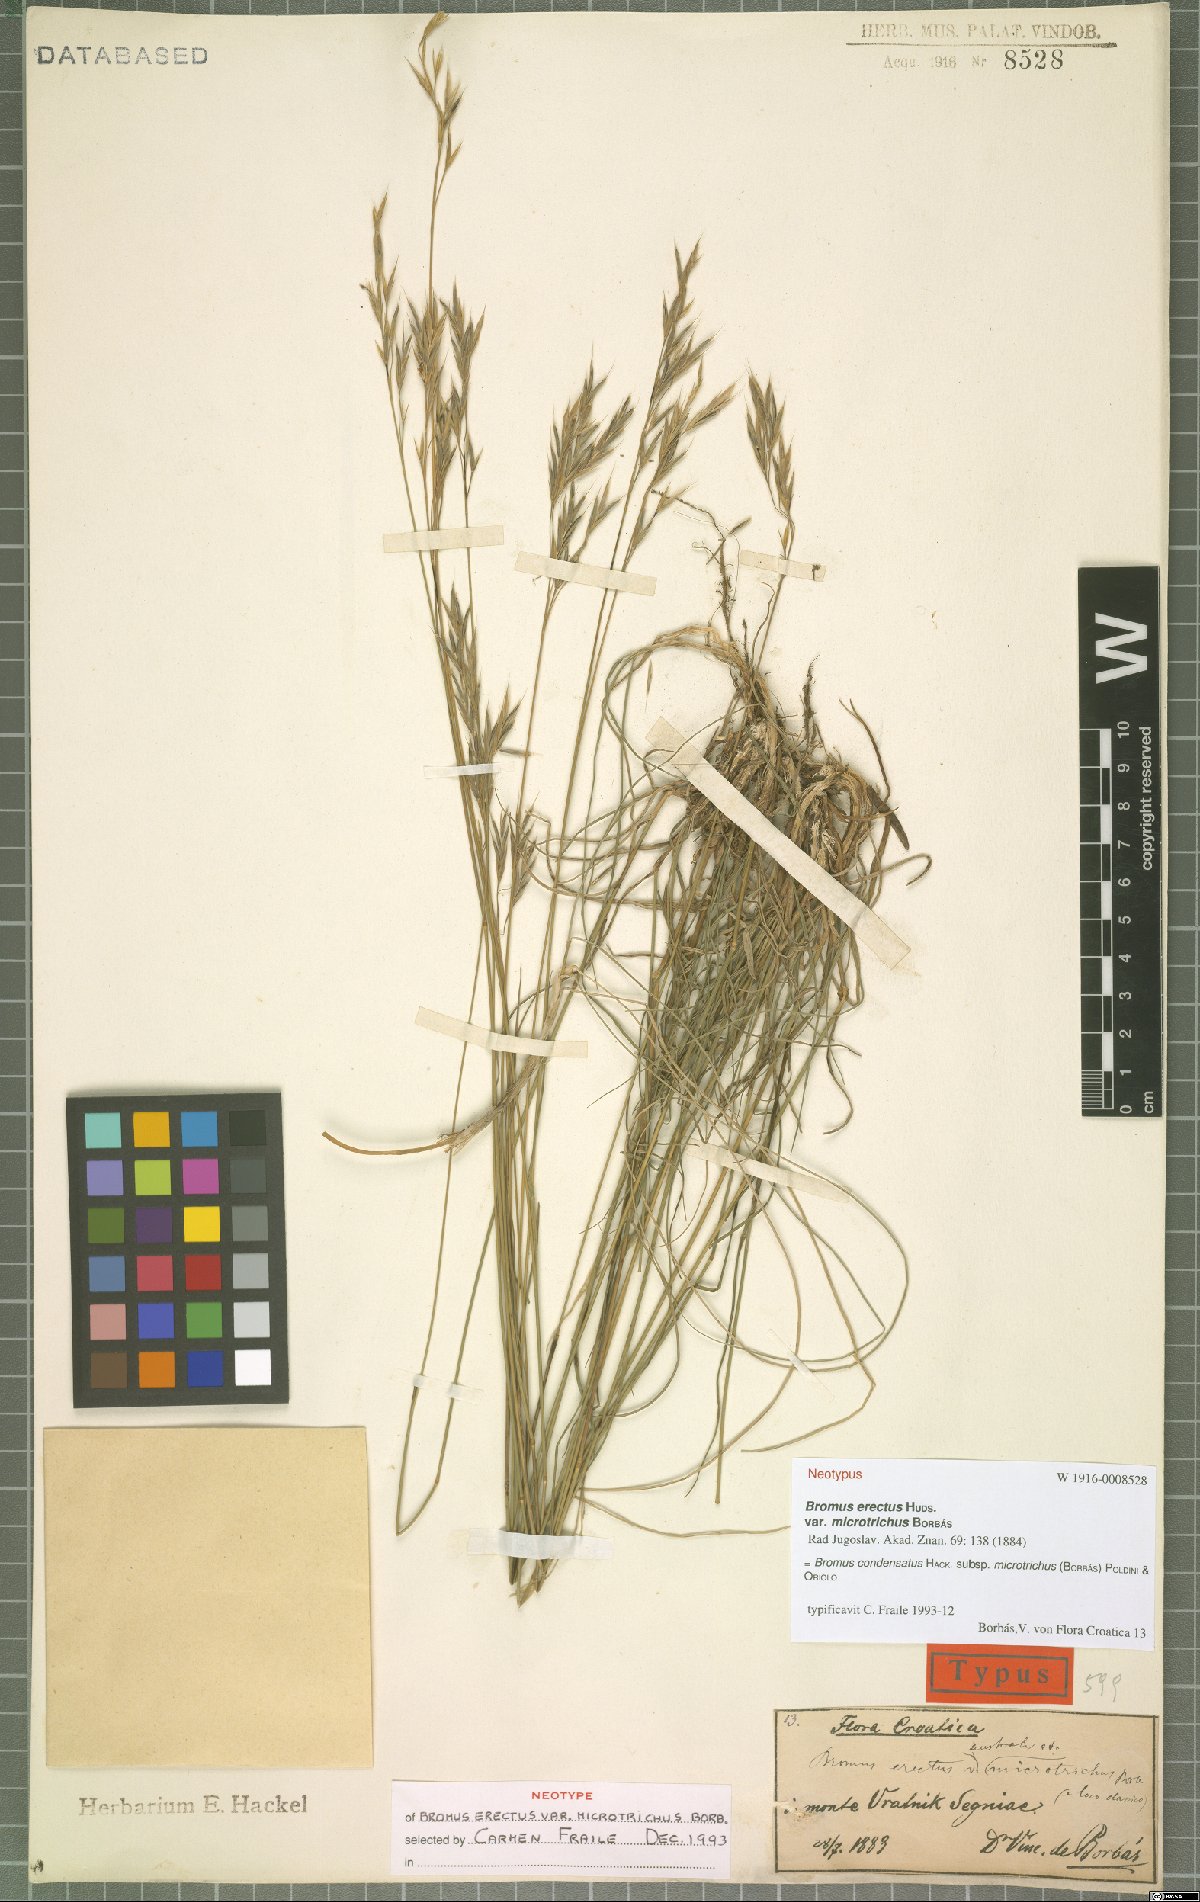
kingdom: Plantae
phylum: Tracheophyta
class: Liliopsida
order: Poales
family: Poaceae
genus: Bromus
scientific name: Bromus condensatus
